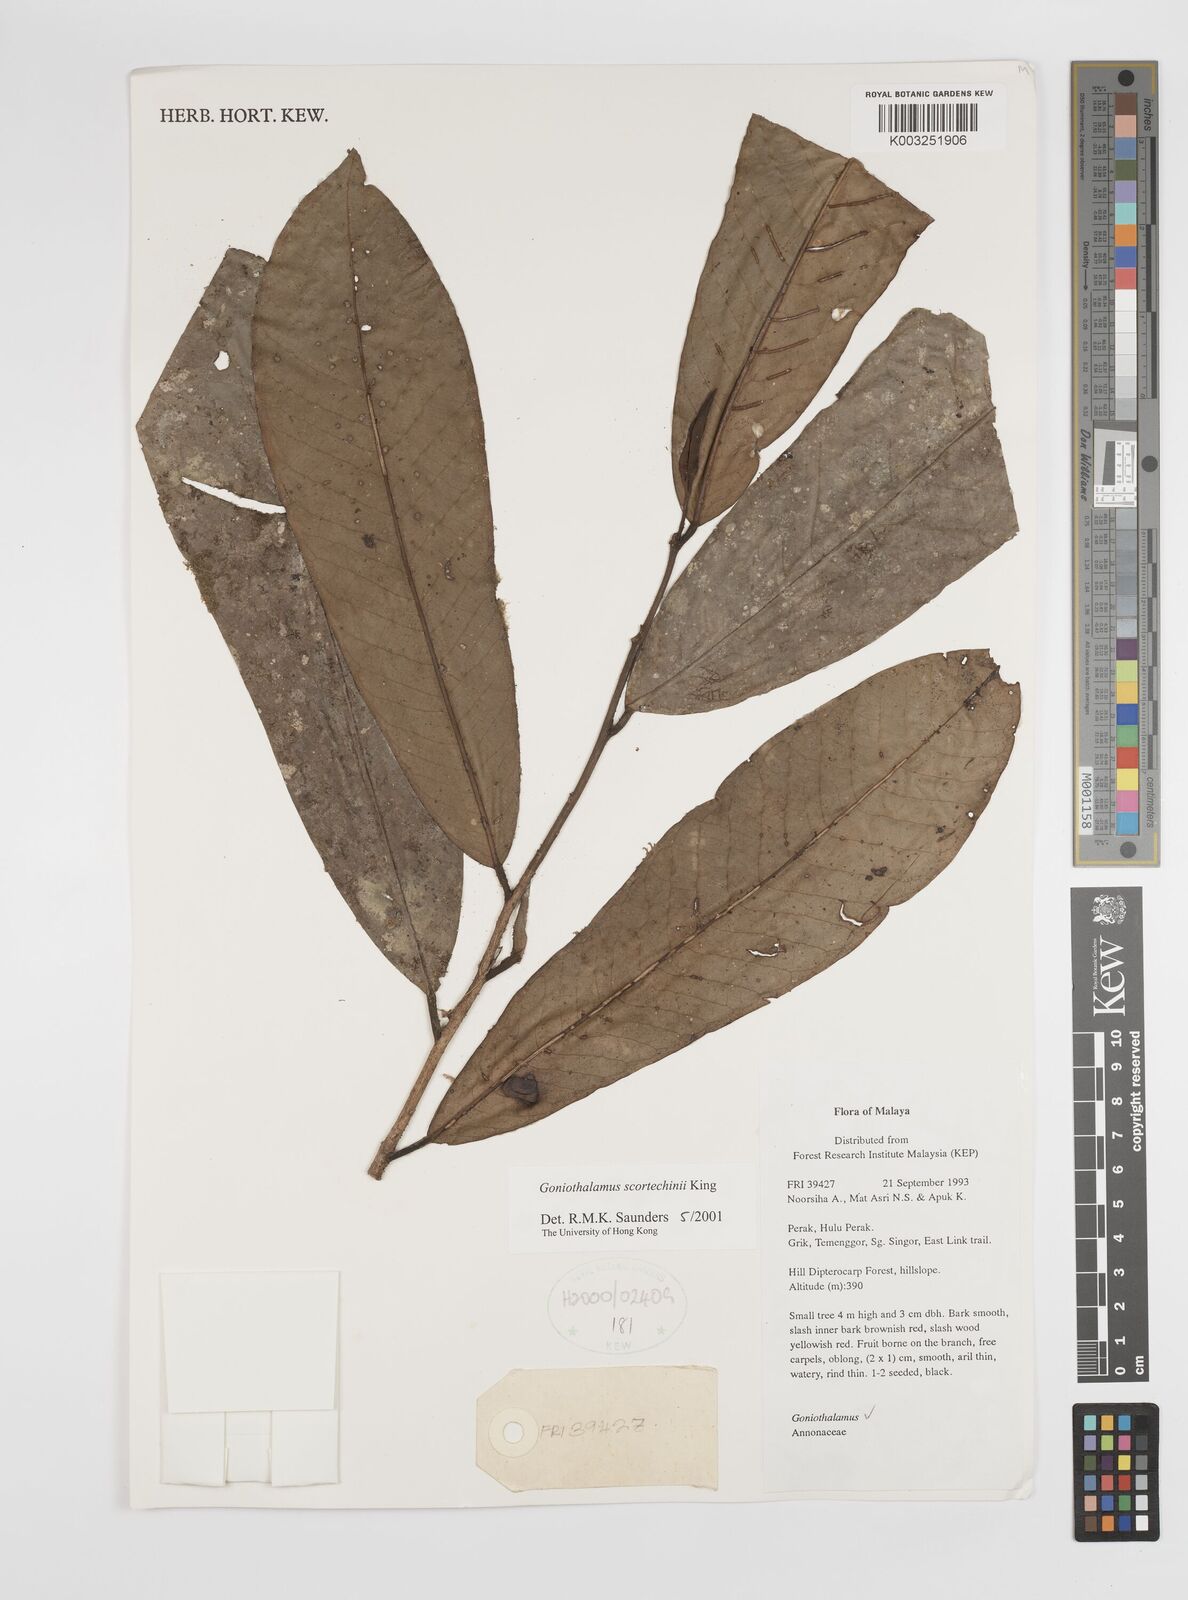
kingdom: Plantae
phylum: Tracheophyta
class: Magnoliopsida
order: Magnoliales
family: Annonaceae
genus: Goniothalamus
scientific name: Goniothalamus scortechinii
